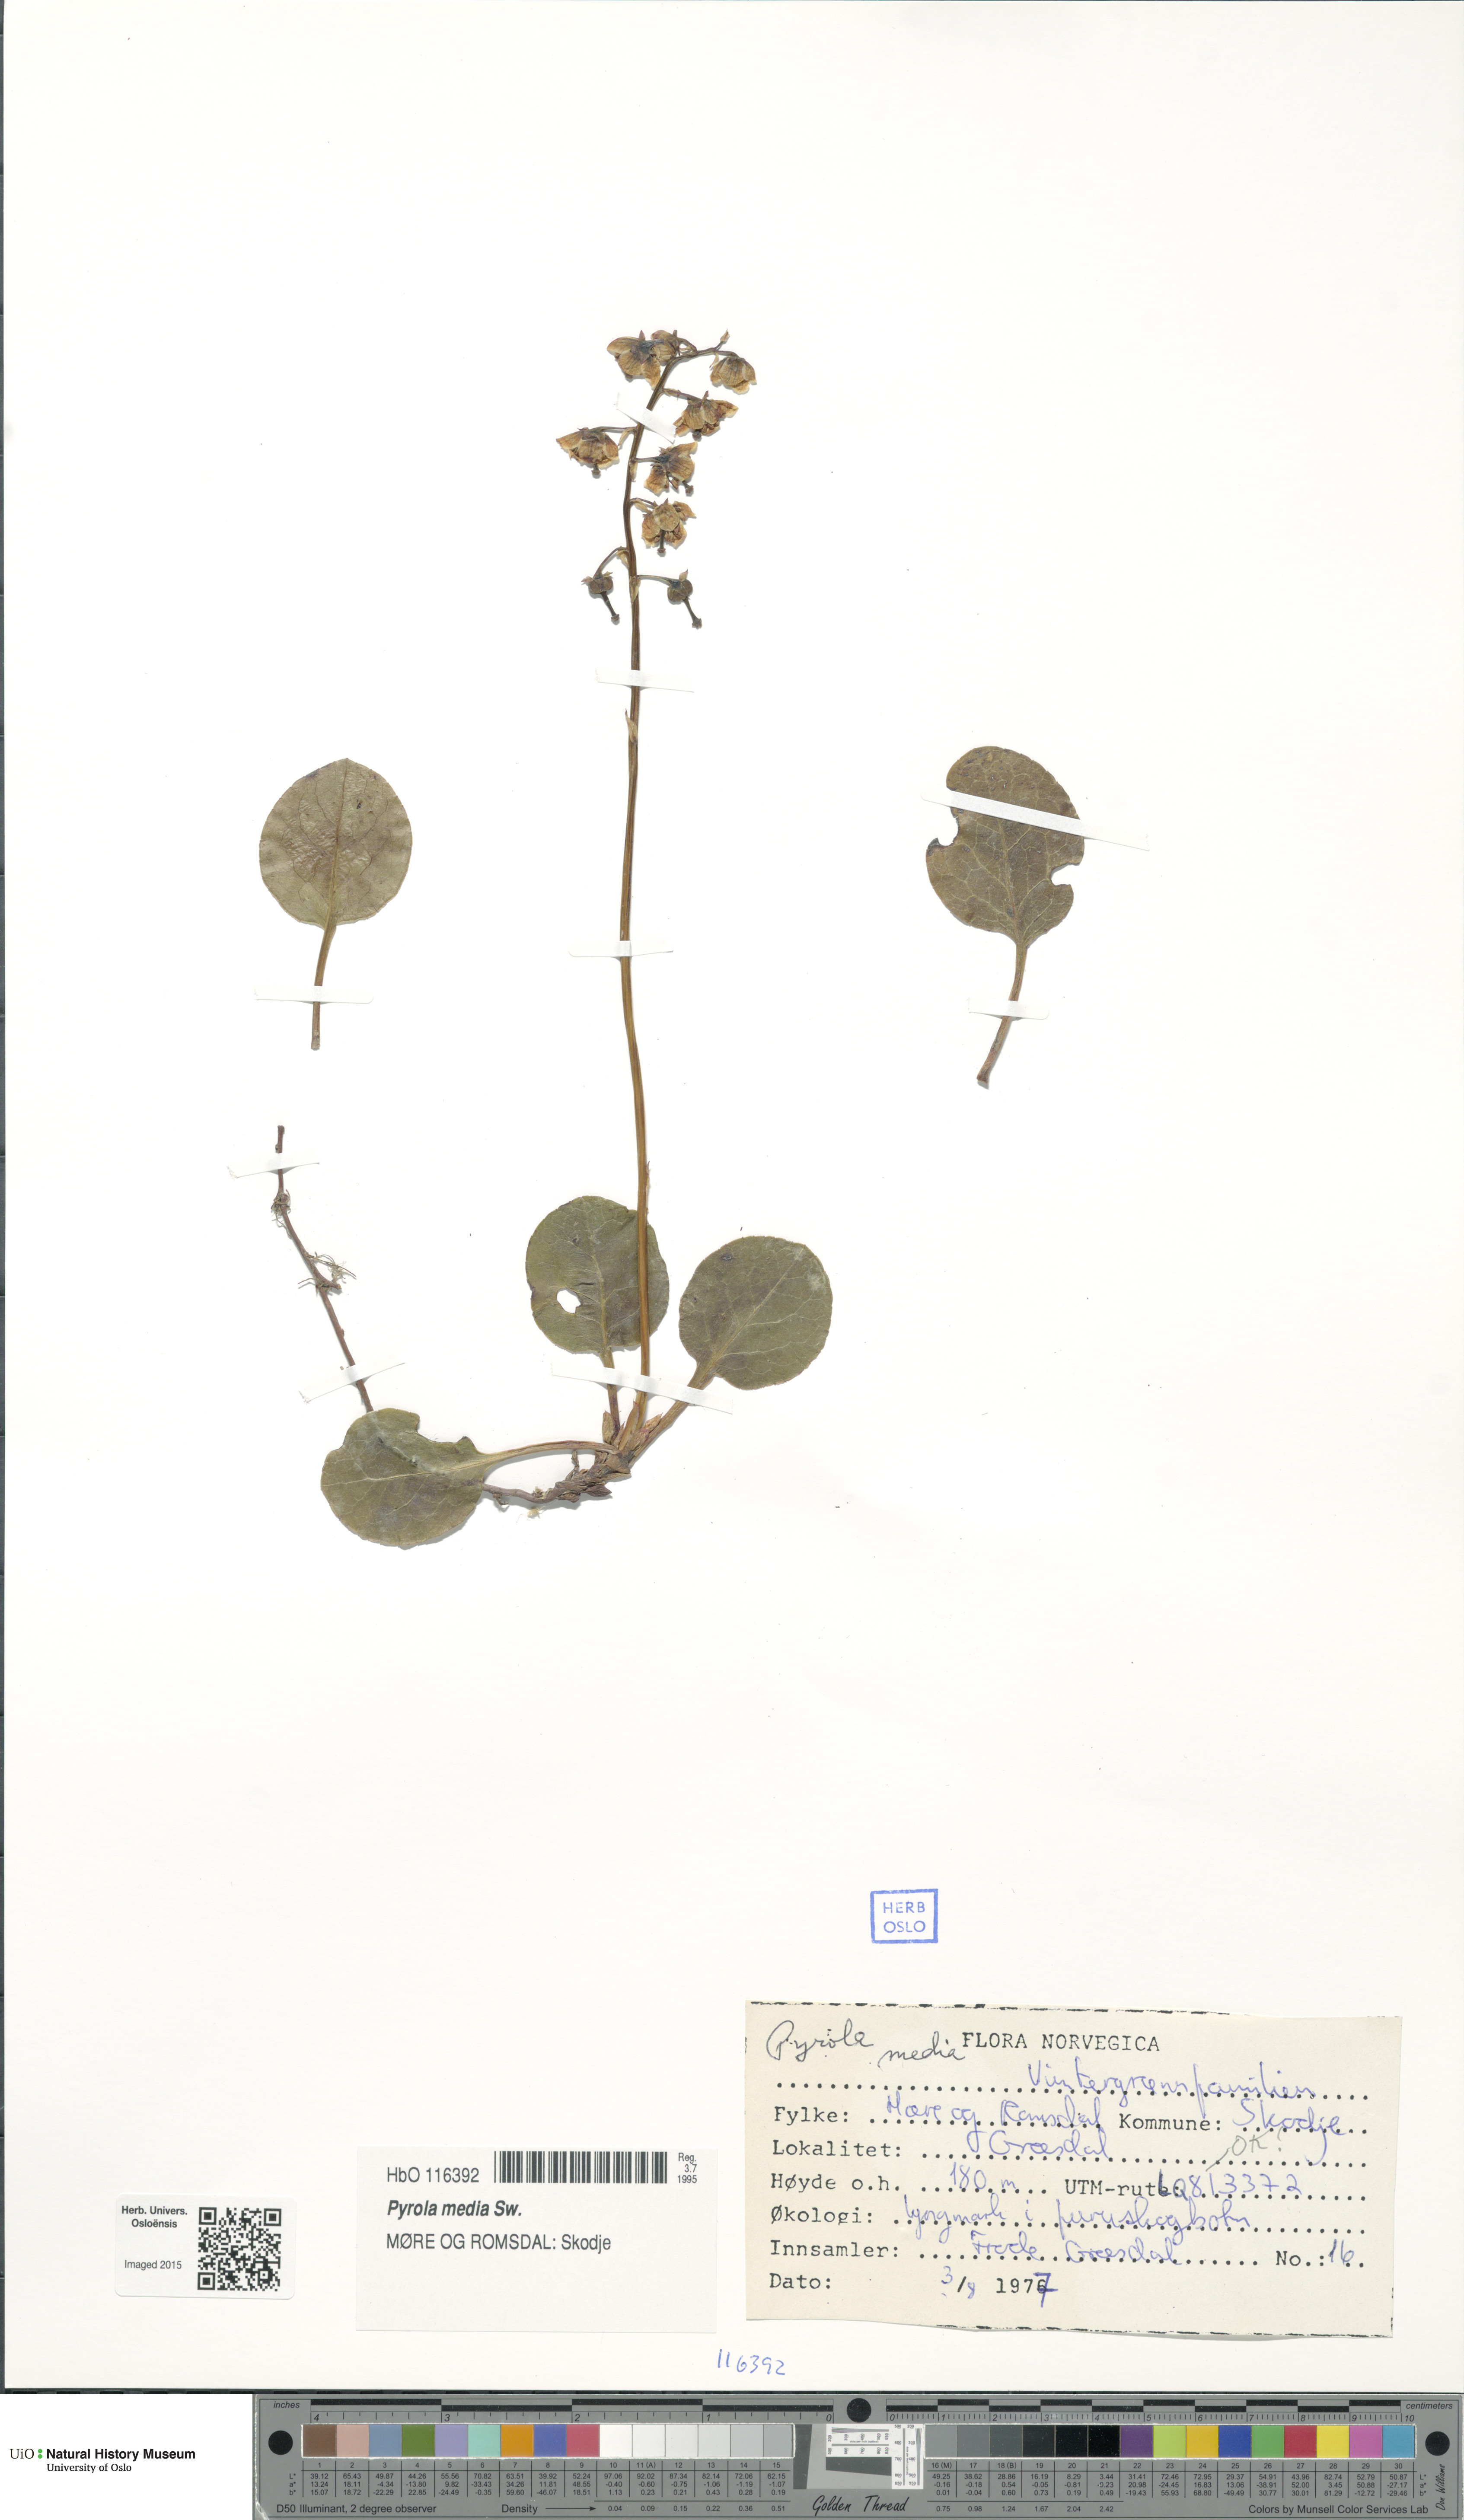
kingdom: Plantae
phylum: Tracheophyta
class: Magnoliopsida
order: Ericales
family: Ericaceae
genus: Pyrola
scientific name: Pyrola media
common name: Intermediate wintergreen
